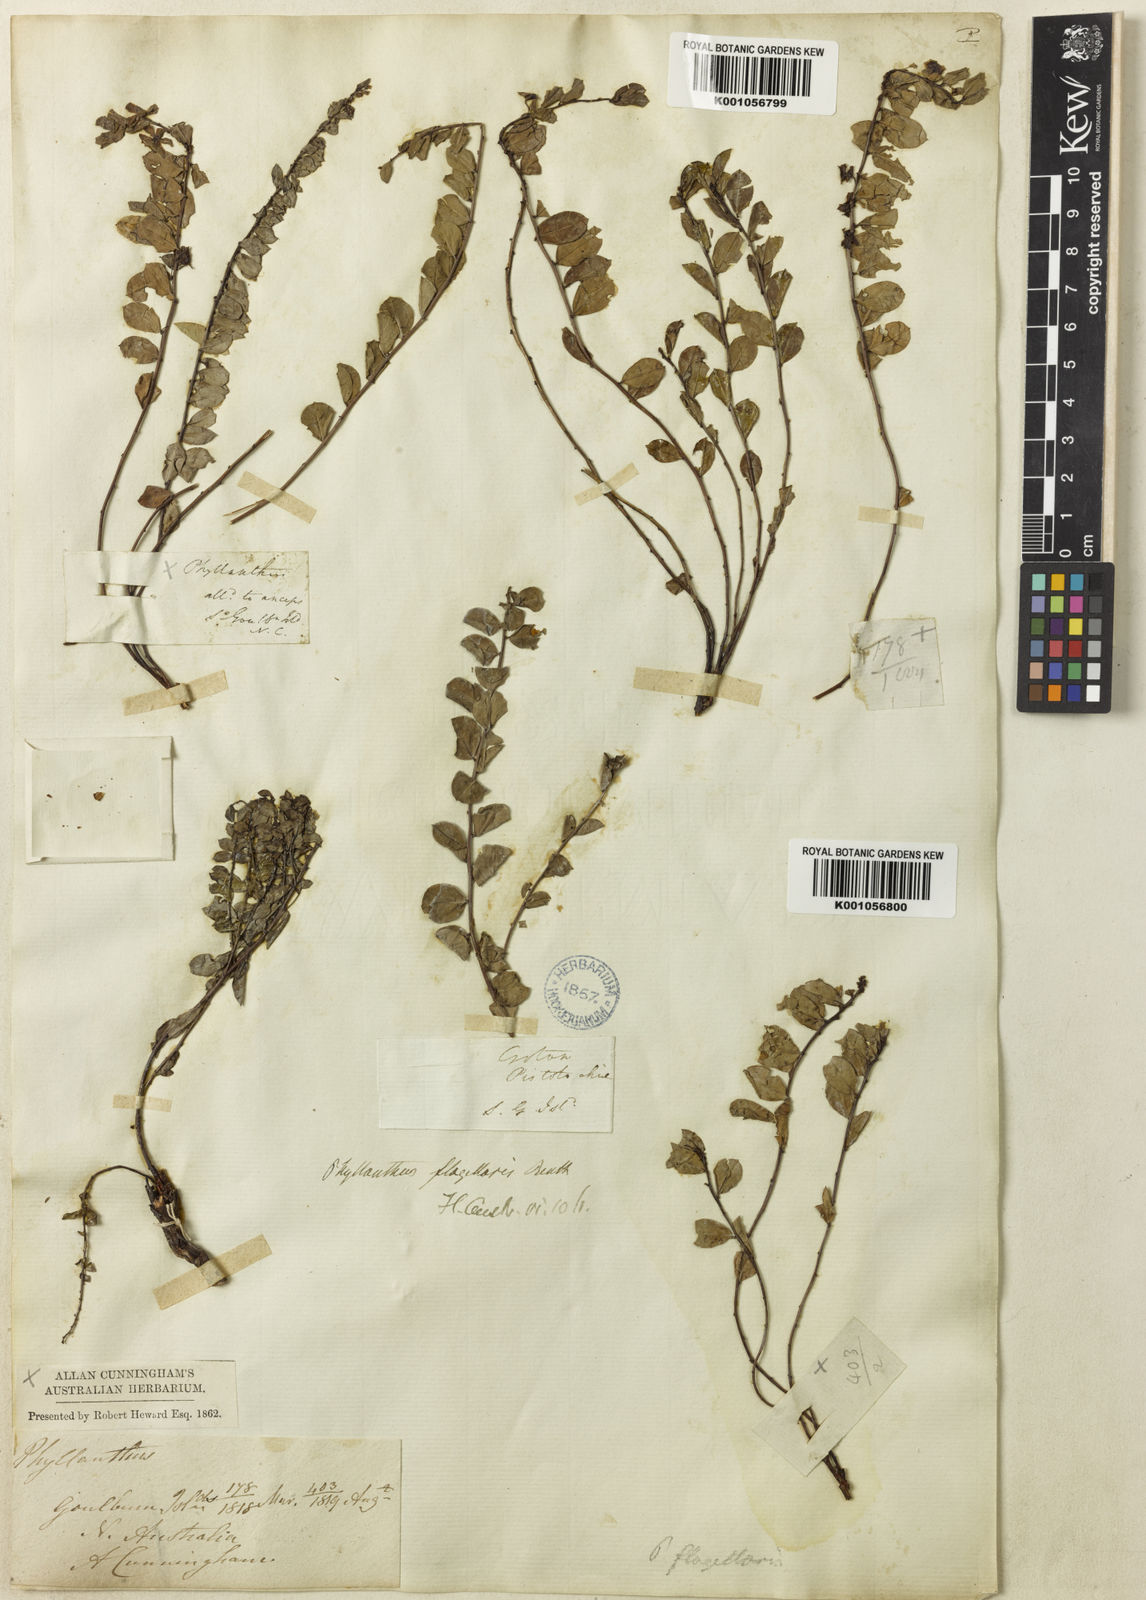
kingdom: Plantae
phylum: Tracheophyta
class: Magnoliopsida
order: Malpighiales
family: Phyllanthaceae
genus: Phyllanthus
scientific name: Phyllanthus flagellaris
